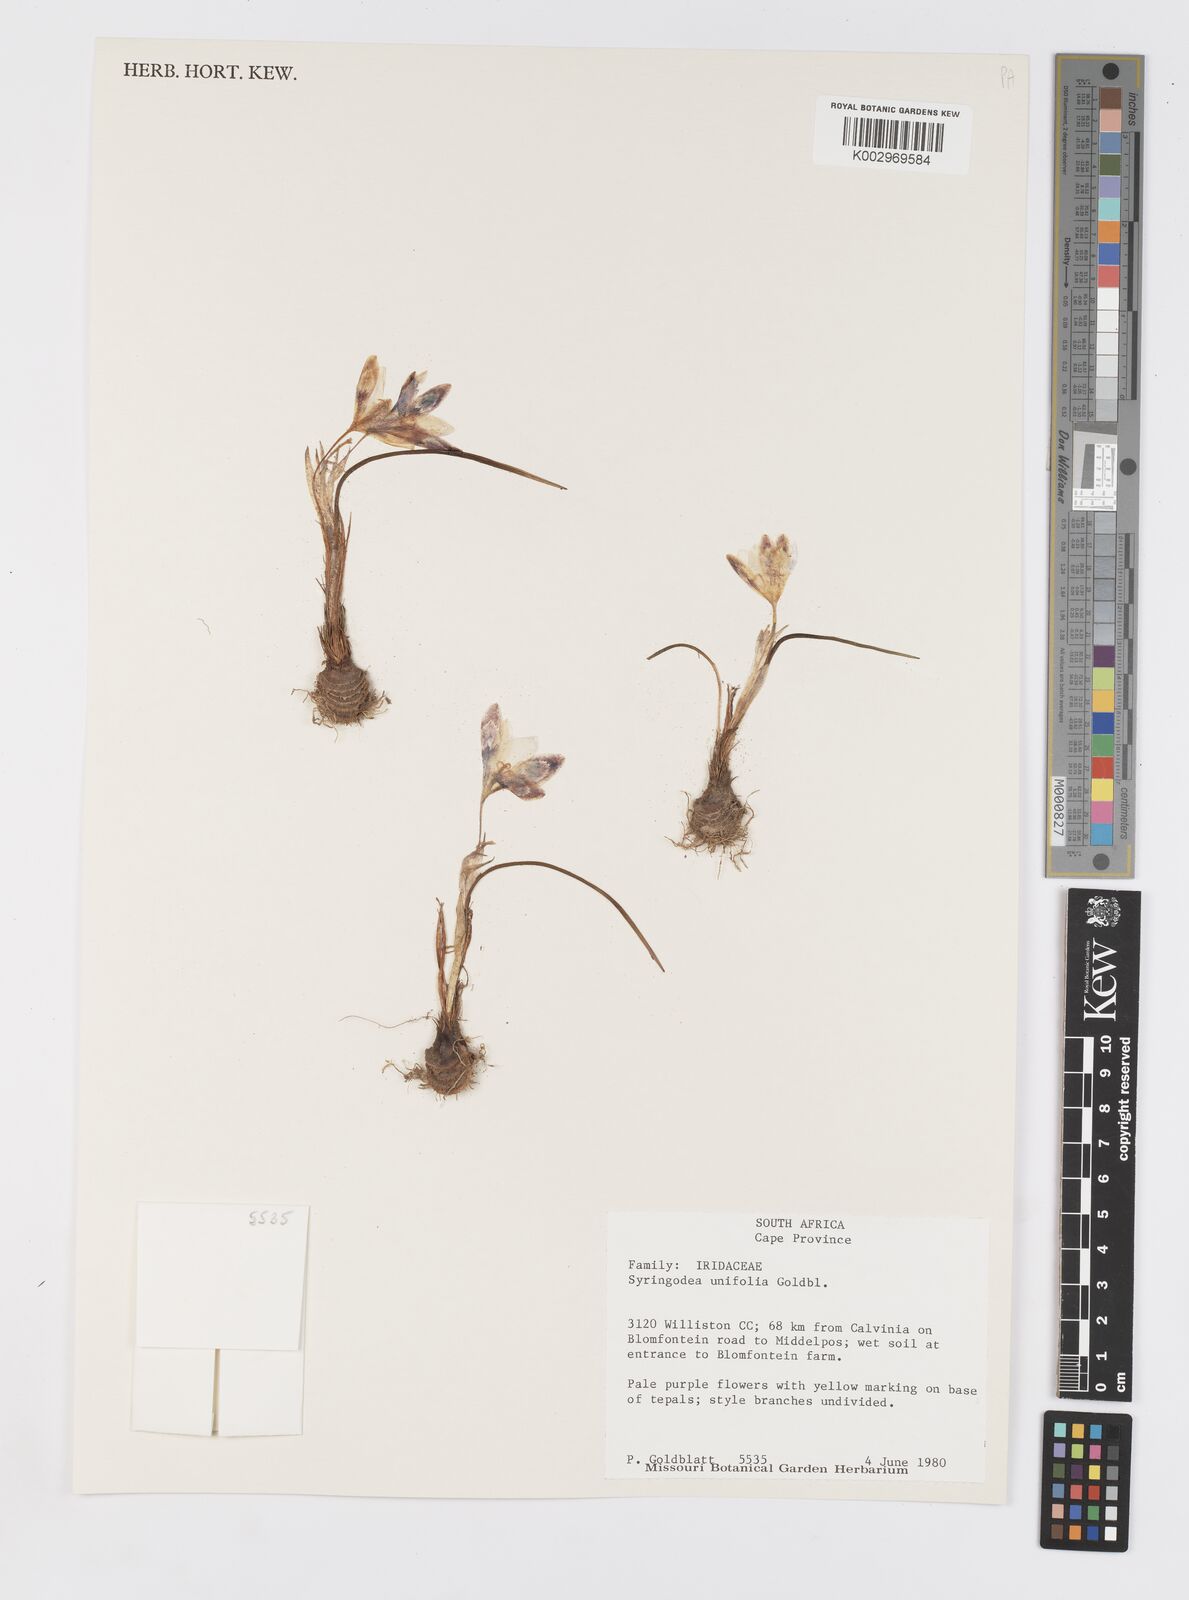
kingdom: Plantae
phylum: Tracheophyta
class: Liliopsida
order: Asparagales
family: Iridaceae
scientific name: Iridaceae
